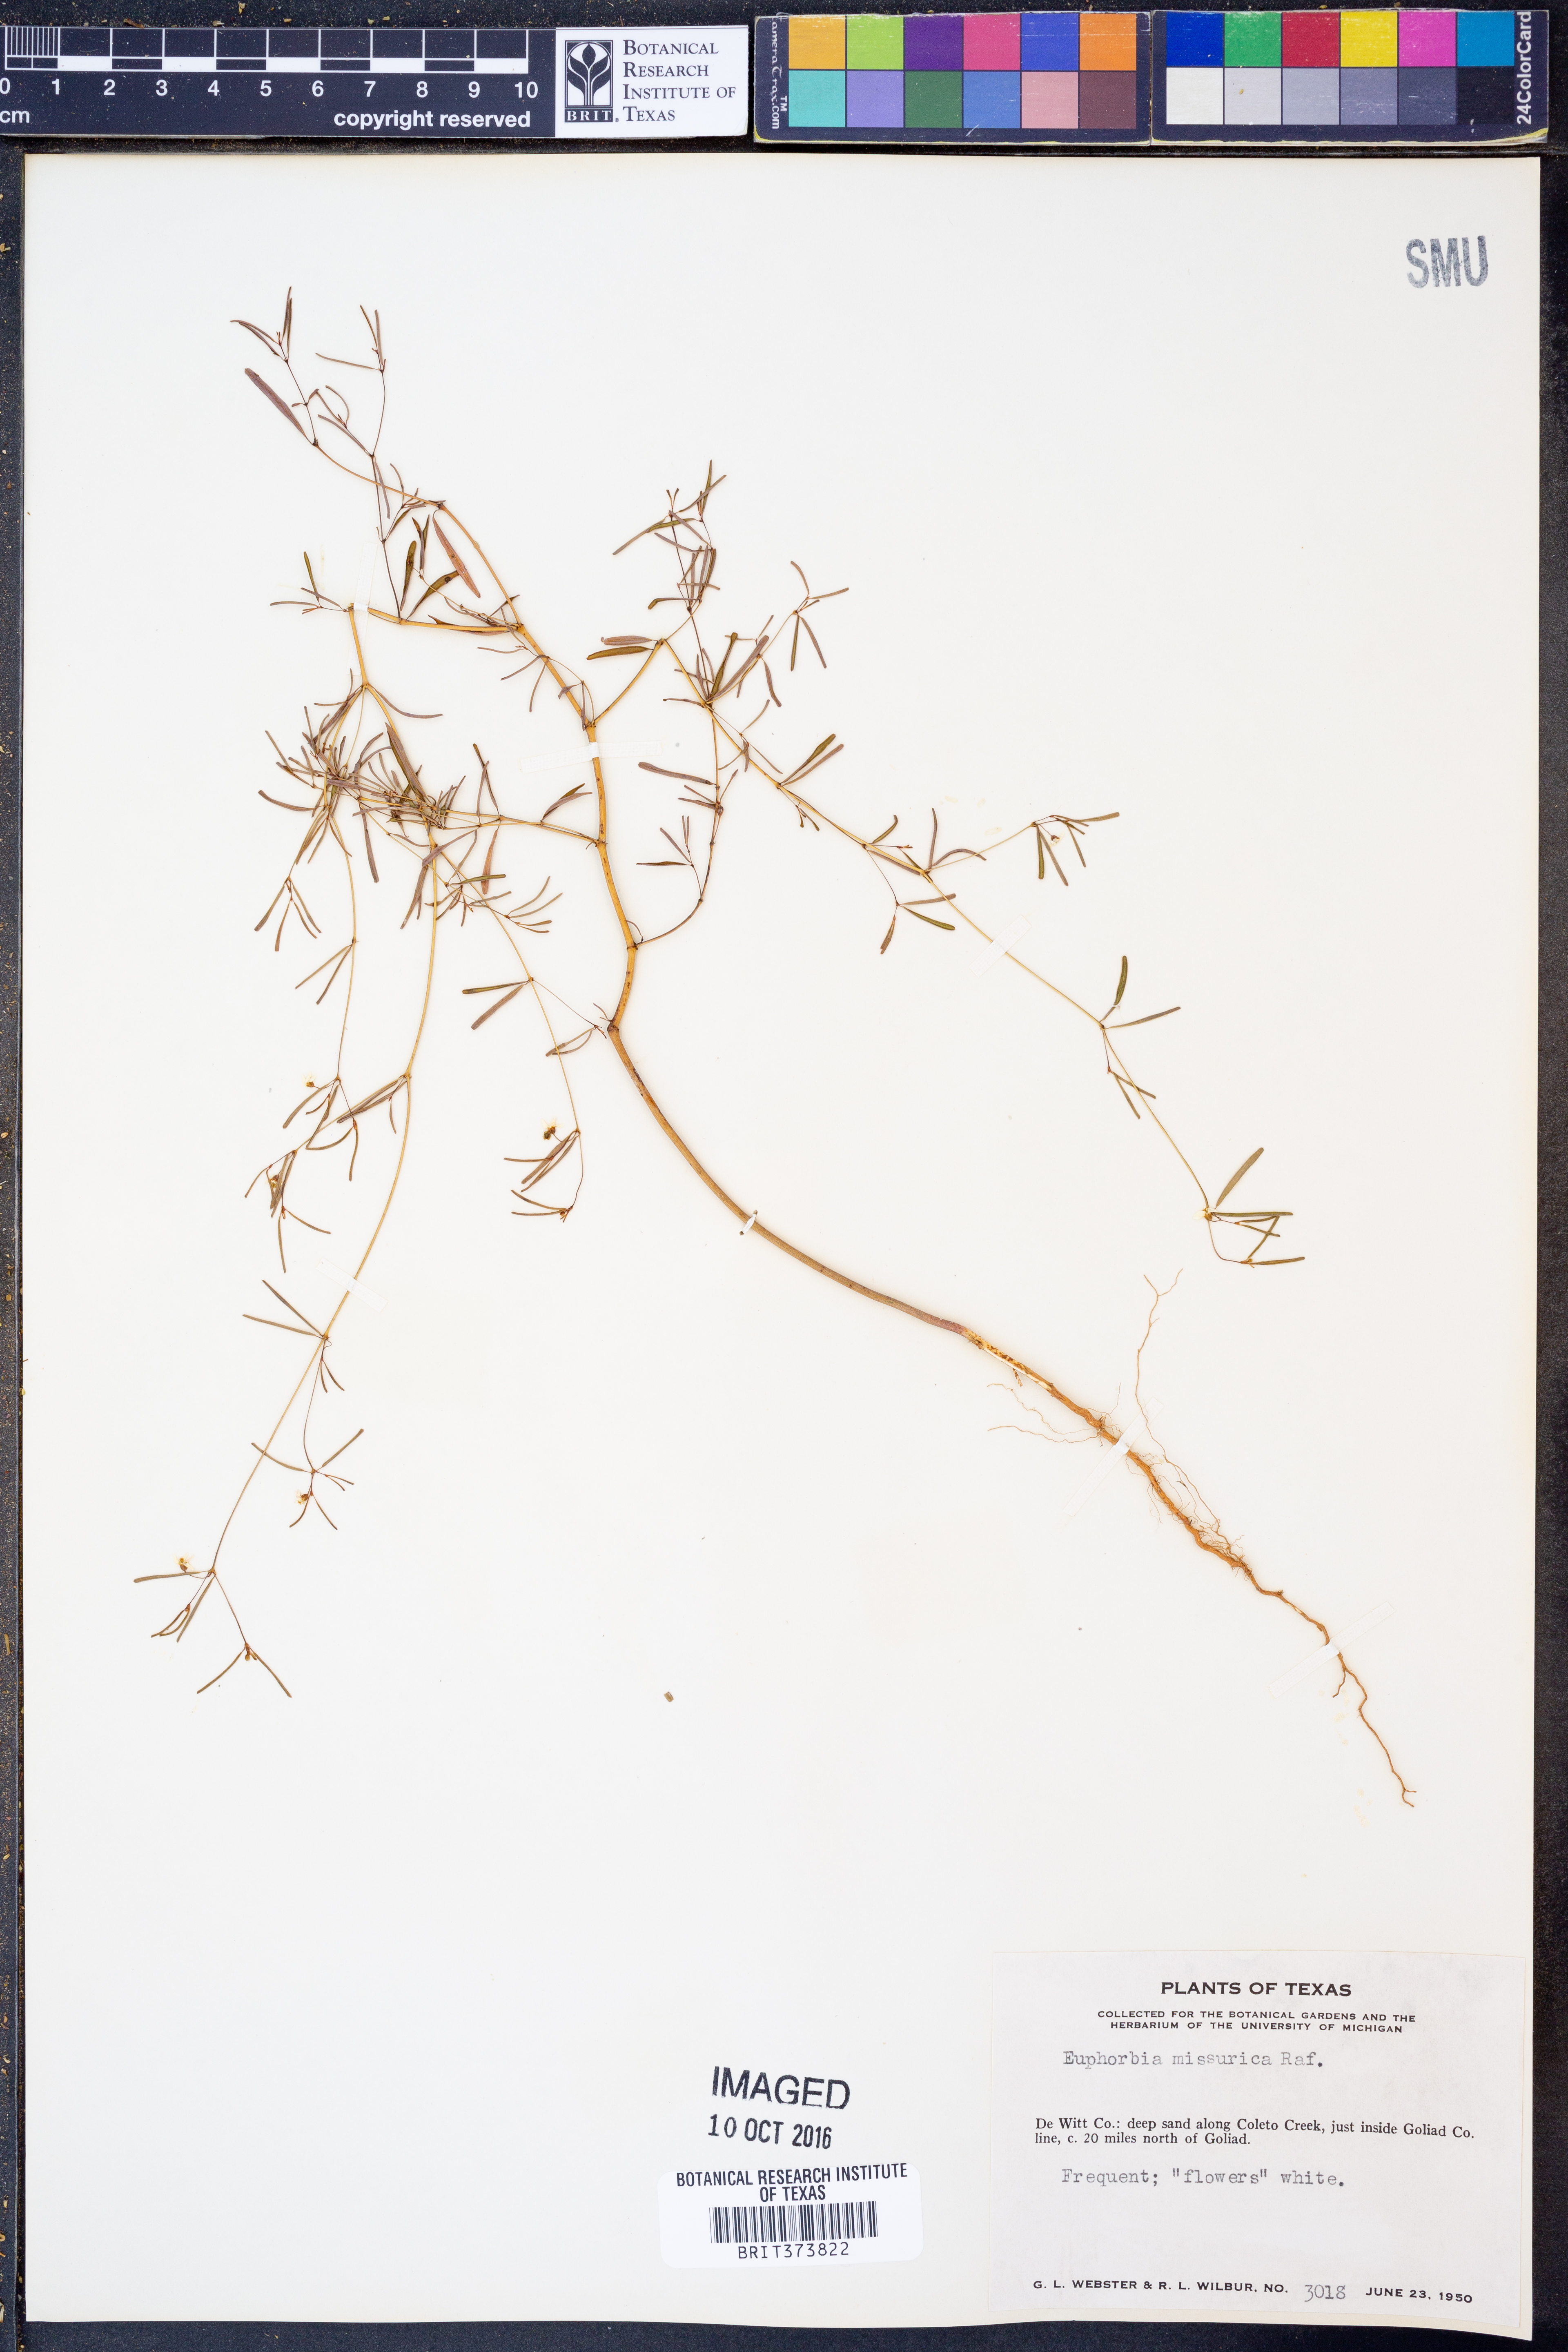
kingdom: Plantae
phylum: Tracheophyta
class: Magnoliopsida
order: Malpighiales
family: Euphorbiaceae
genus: Euphorbia
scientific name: Euphorbia missurica
